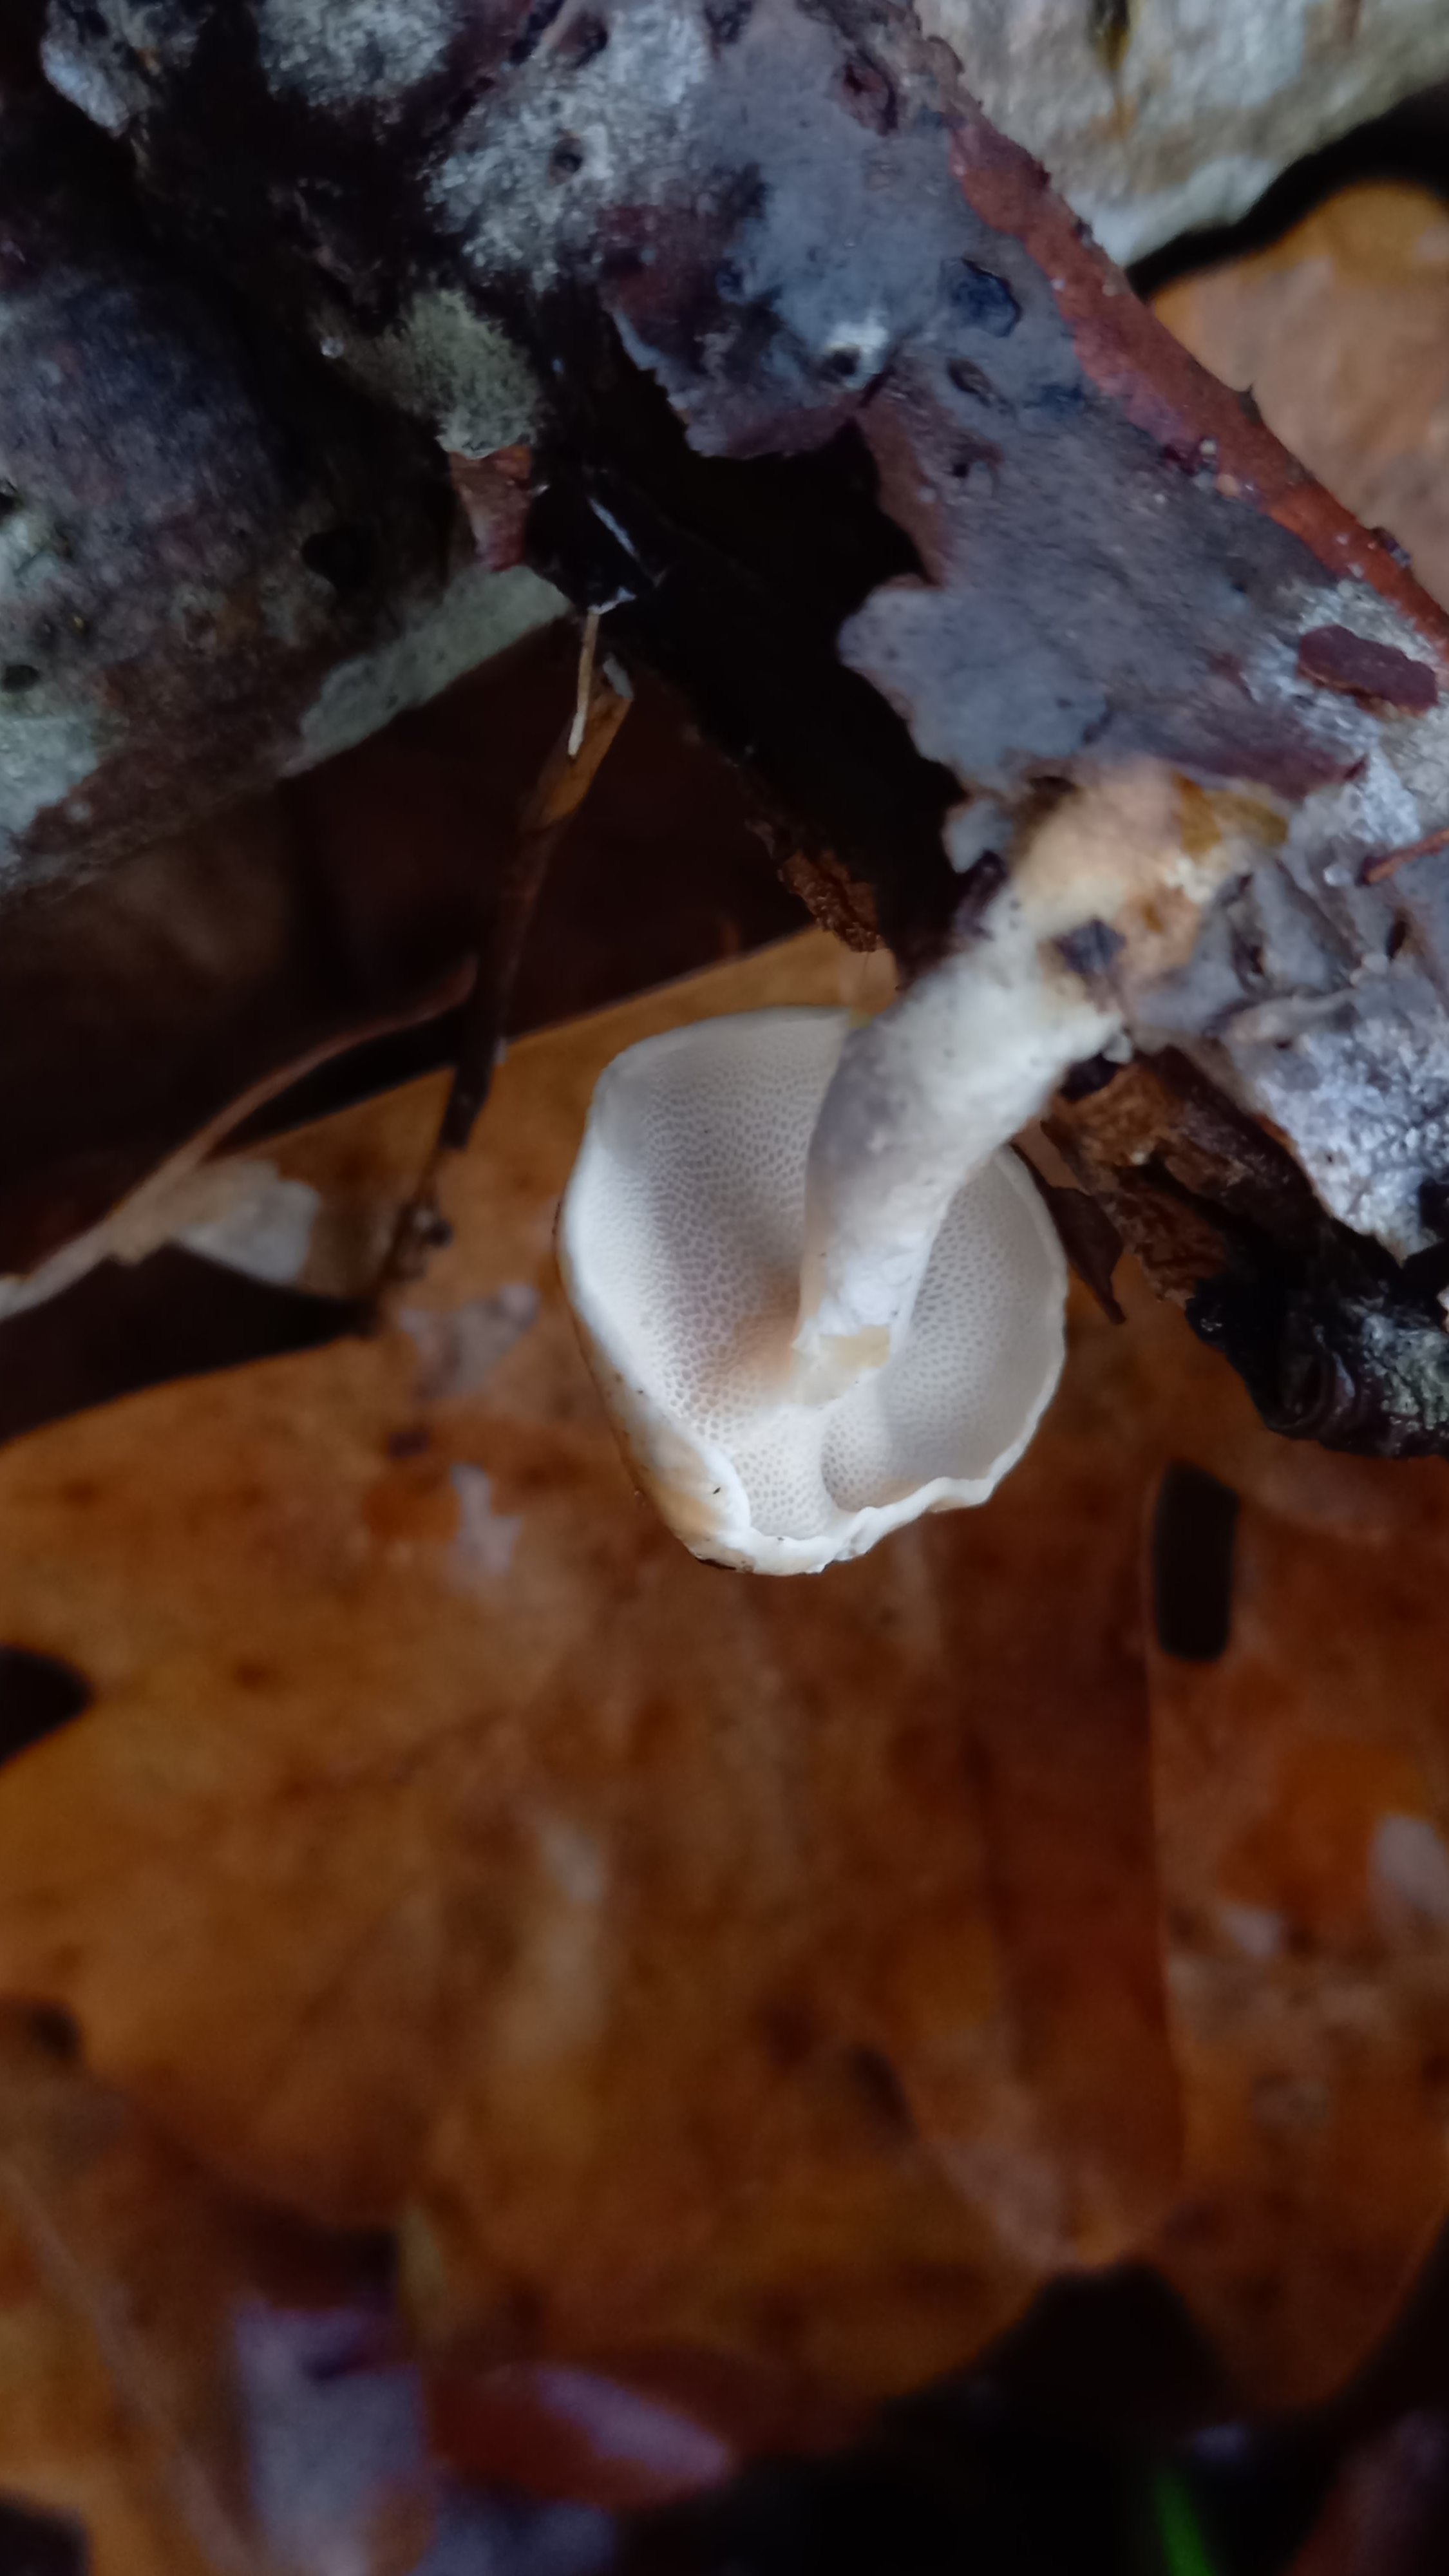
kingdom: Fungi
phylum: Basidiomycota
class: Agaricomycetes
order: Polyporales
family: Polyporaceae
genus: Lentinus
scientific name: Lentinus brumalis
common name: vinter-stilkporesvamp
